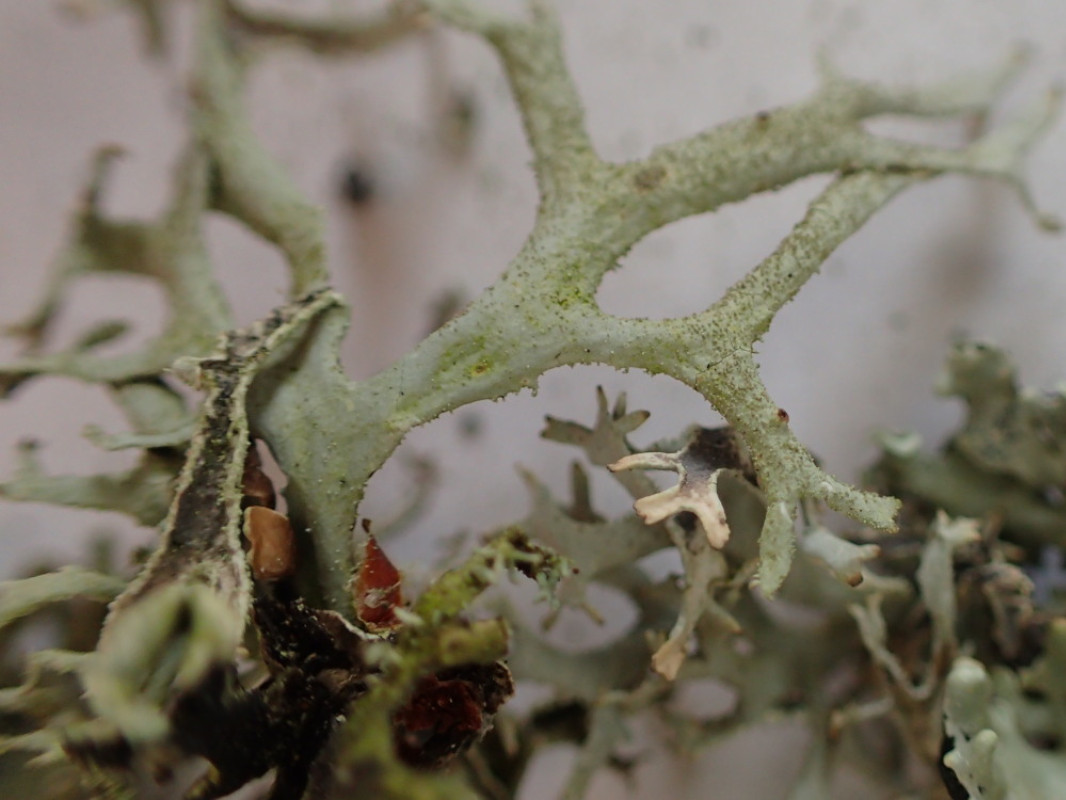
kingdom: Fungi
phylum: Ascomycota
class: Lecanoromycetes
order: Lecanorales
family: Parmeliaceae
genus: Pseudevernia
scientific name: Pseudevernia furfuracea
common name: grå fyrrelav
